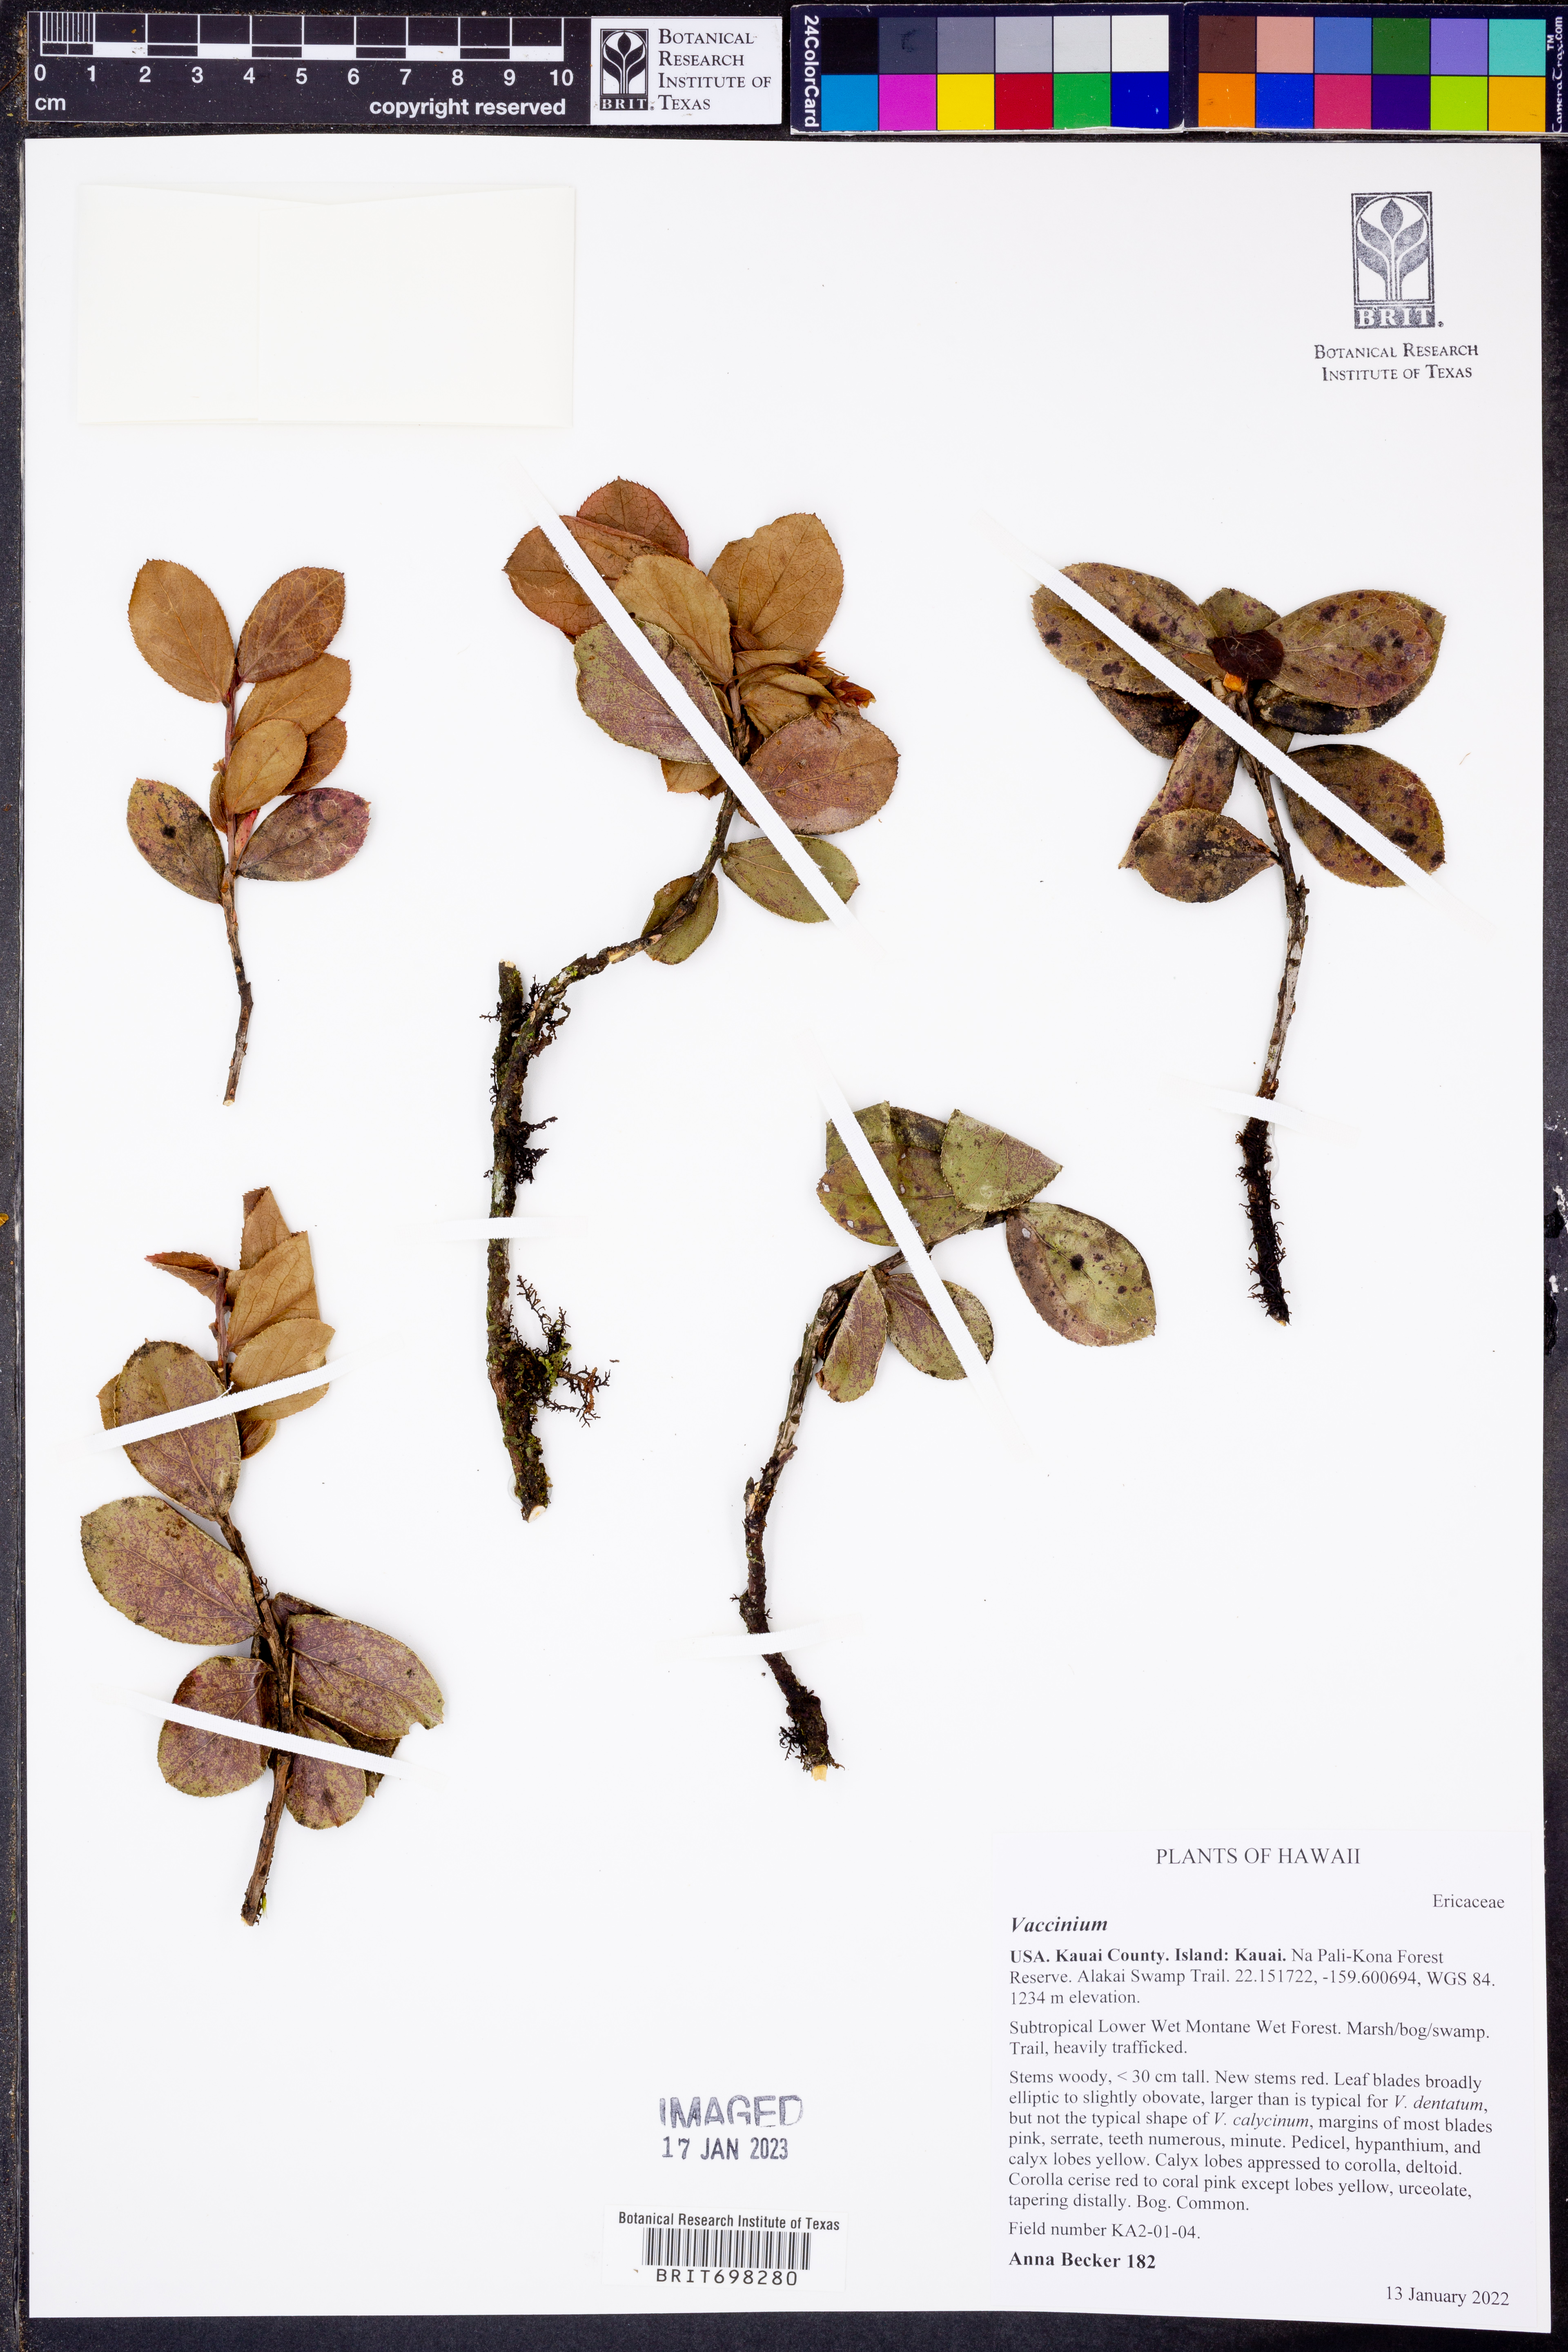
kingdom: Plantae
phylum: Tracheophyta
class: Magnoliopsida
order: Ericales
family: Ericaceae
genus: Vaccinium
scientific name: Vaccinium
